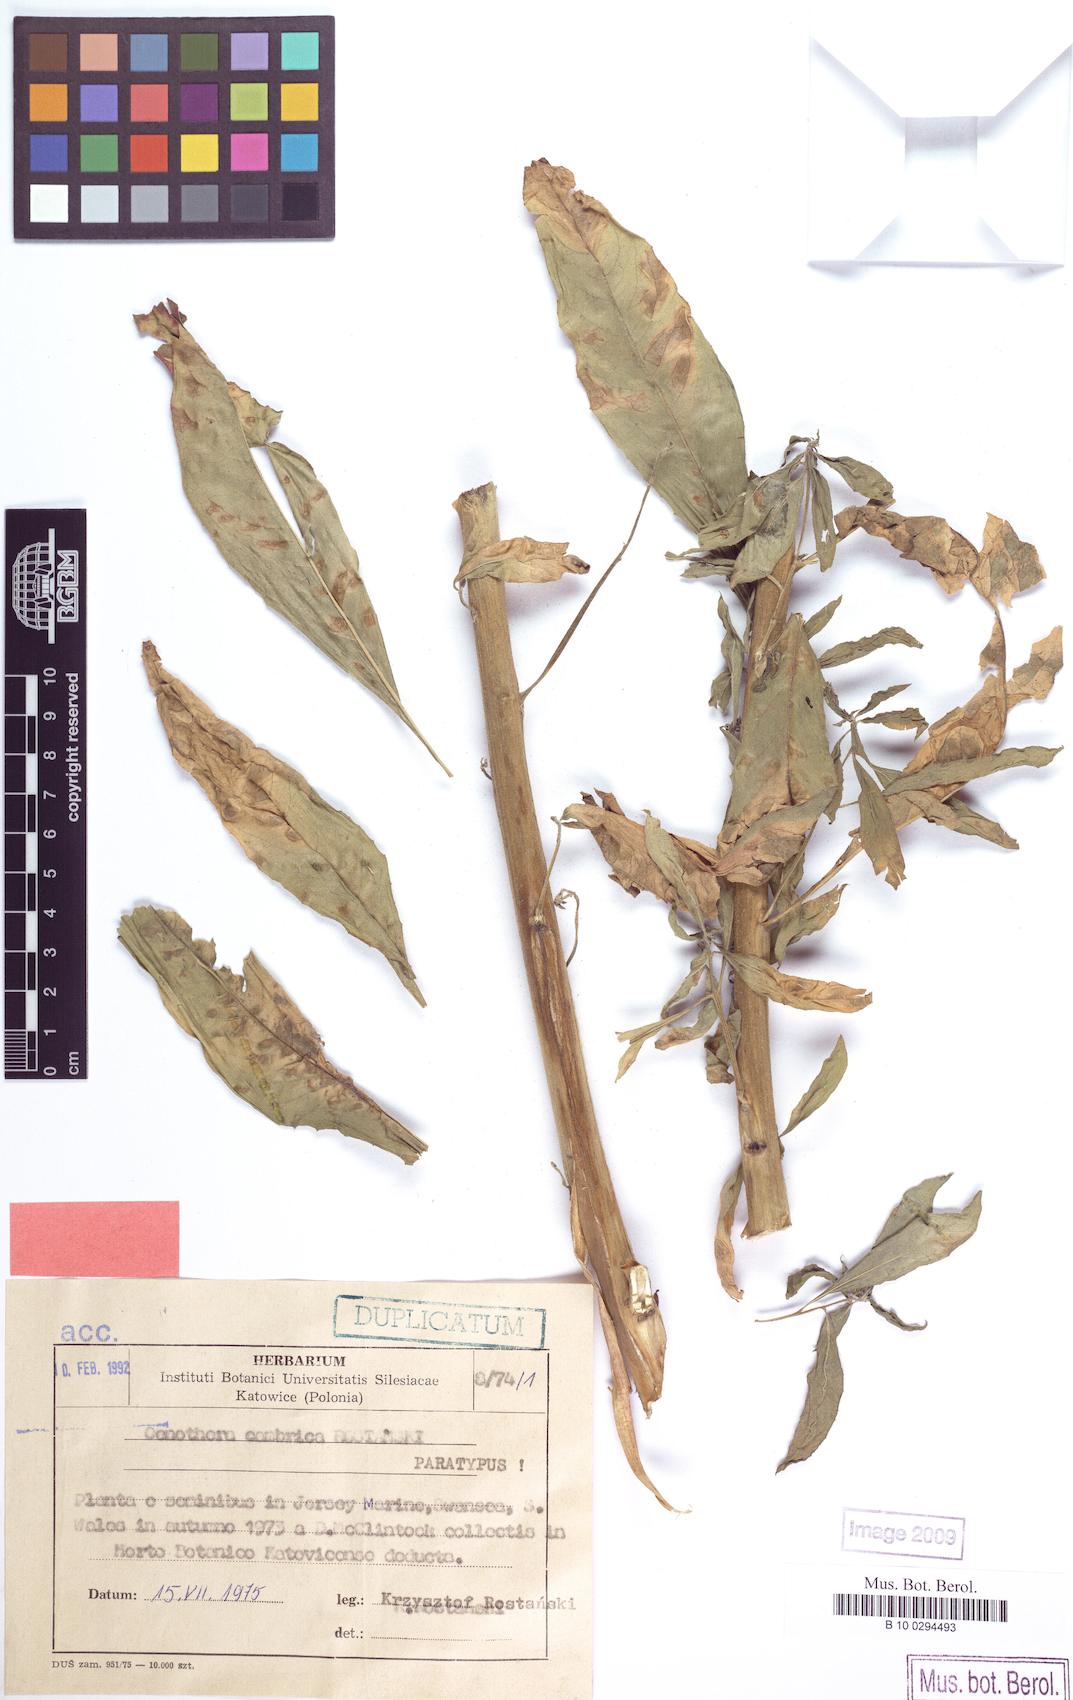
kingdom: Plantae
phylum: Tracheophyta
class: Magnoliopsida
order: Myrtales
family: Onagraceae
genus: Oenothera
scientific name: Oenothera cambrica
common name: Small-flowered evening-primrose
